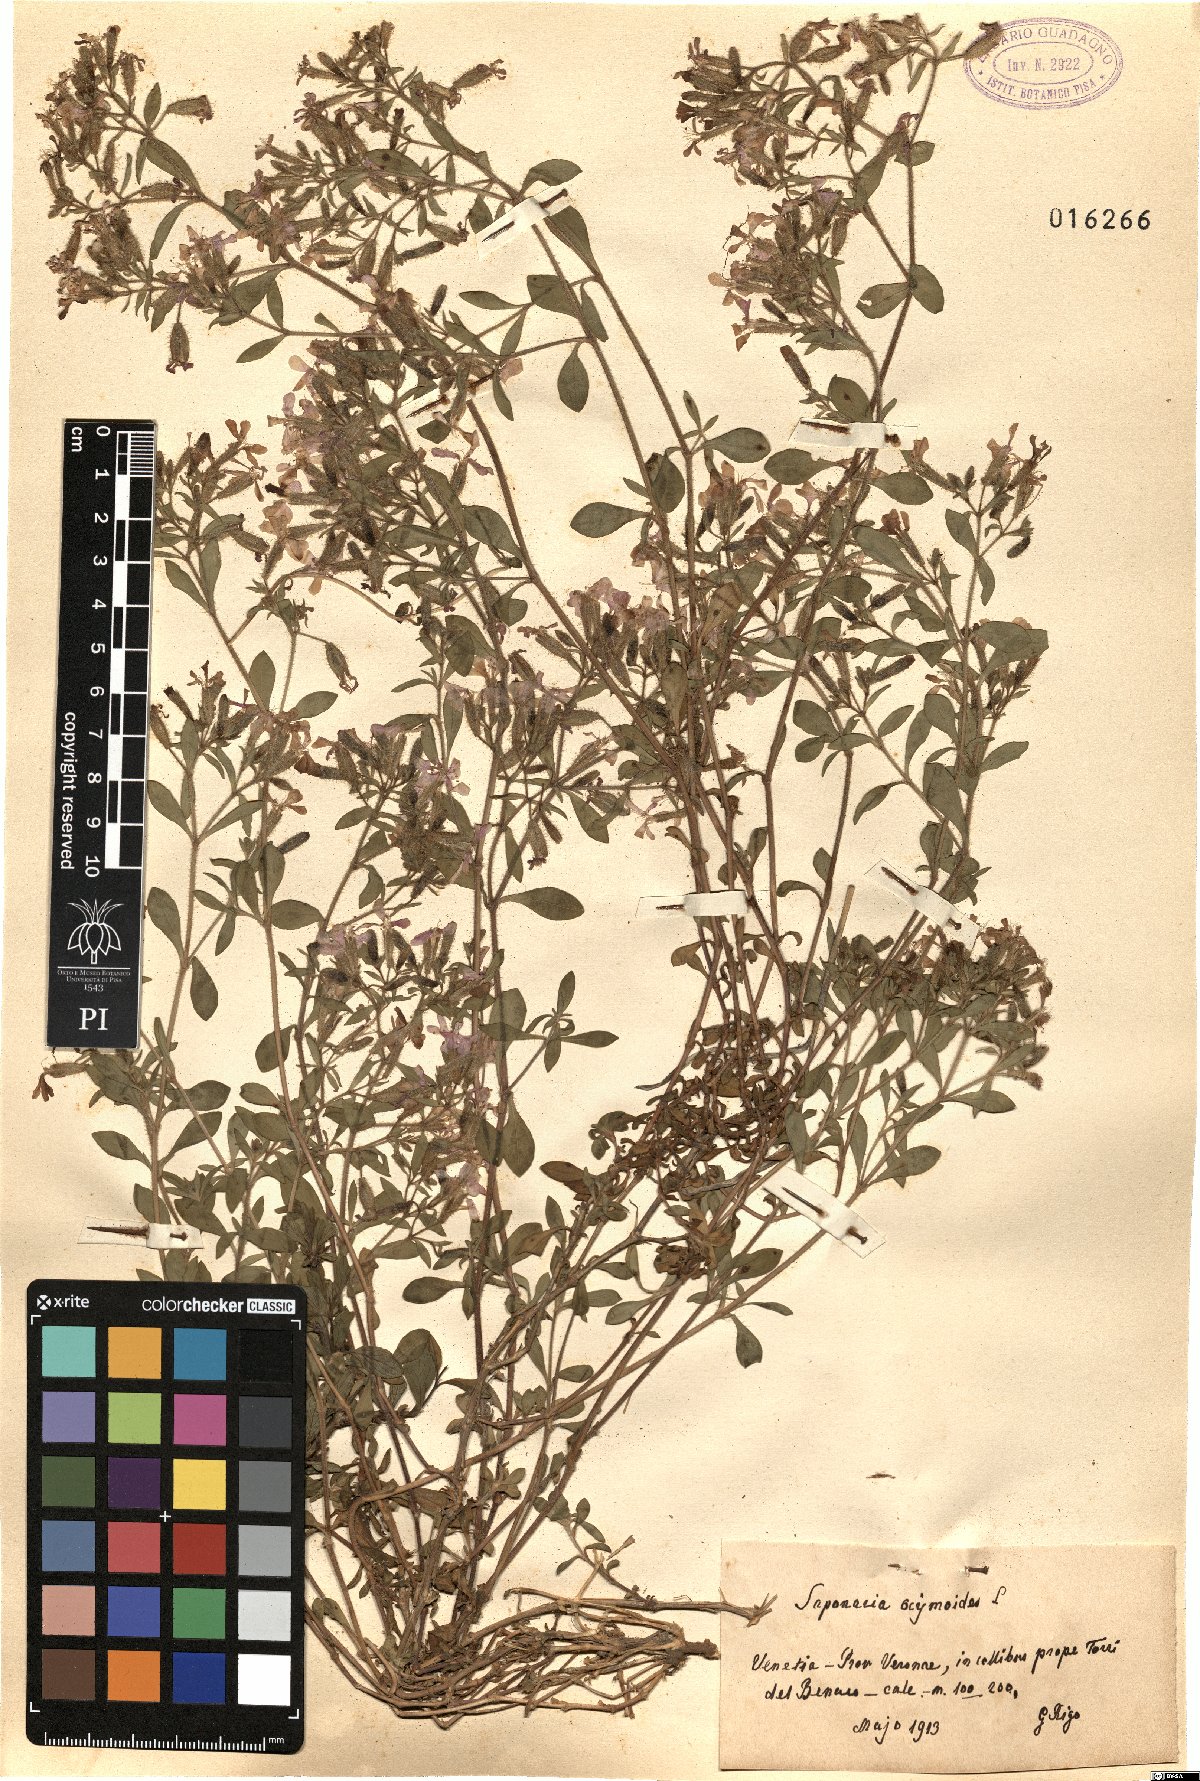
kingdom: Plantae
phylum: Tracheophyta
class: Magnoliopsida
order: Caryophyllales
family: Caryophyllaceae
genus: Saponaria
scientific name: Saponaria ocymoides
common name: Rock soapwort
